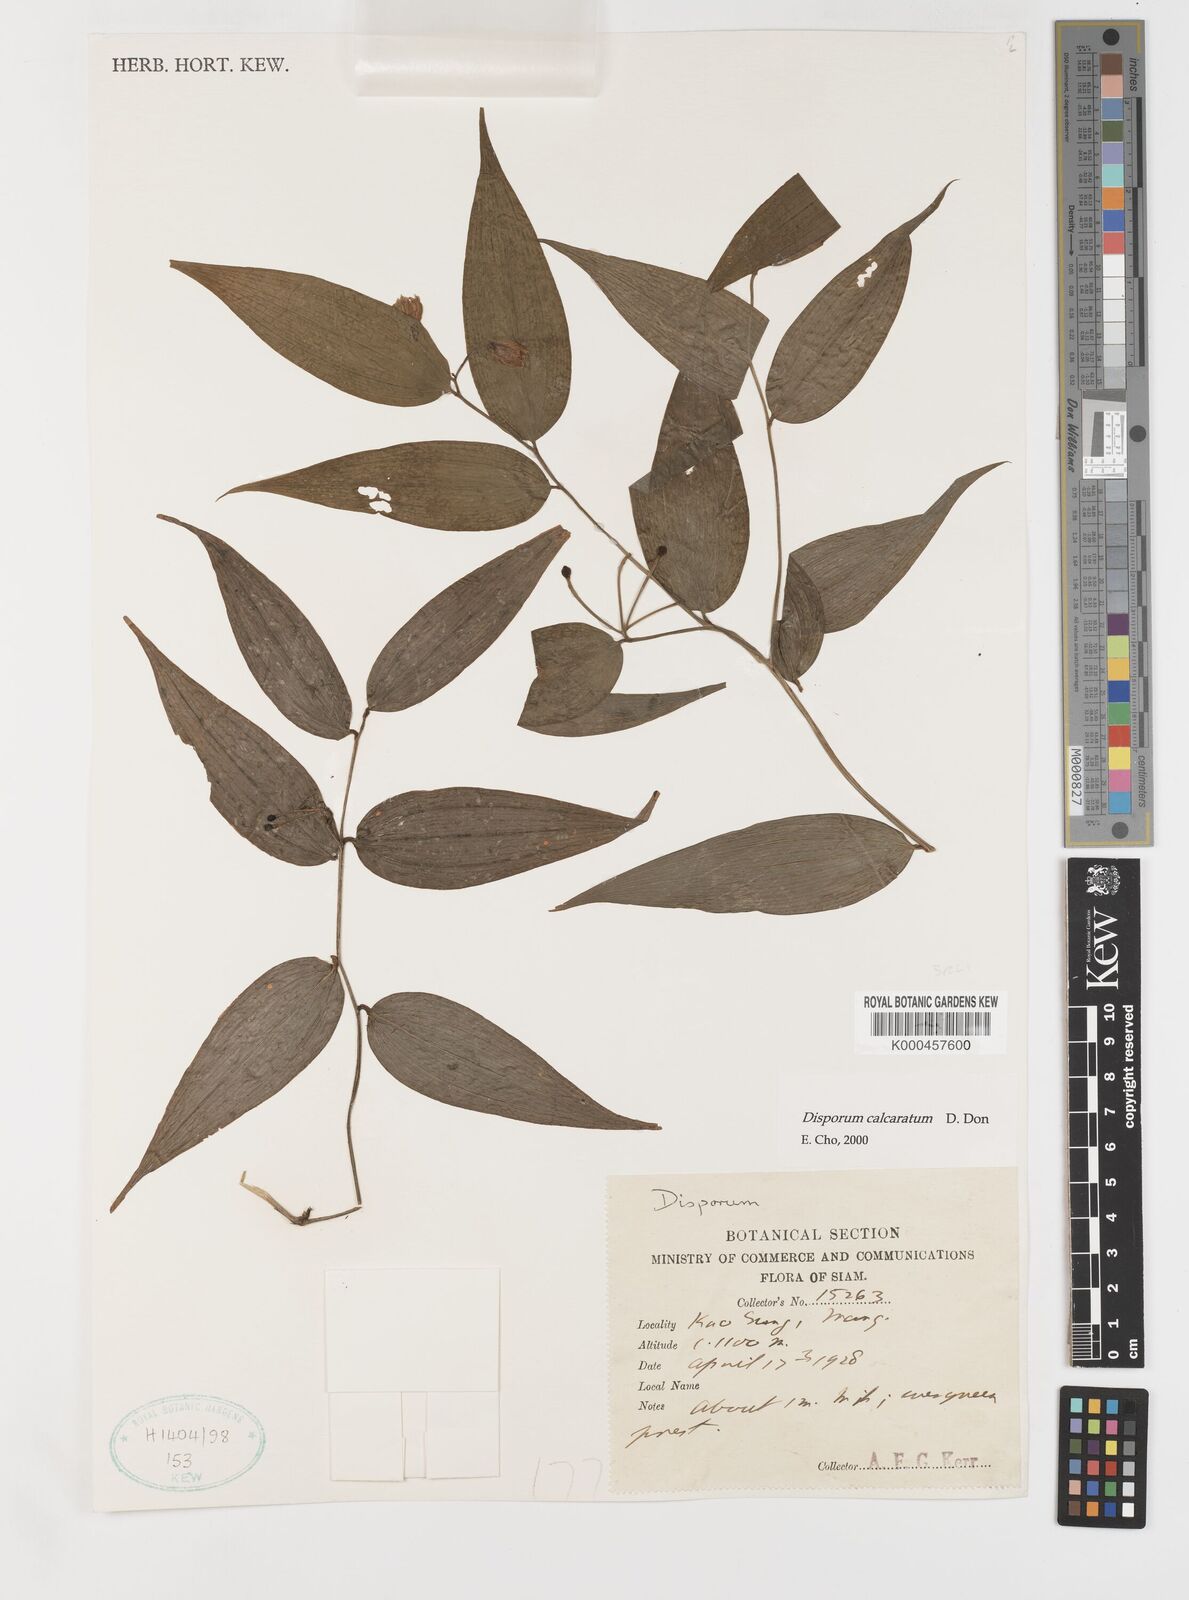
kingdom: Plantae
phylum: Tracheophyta
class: Liliopsida
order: Liliales
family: Colchicaceae
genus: Disporum
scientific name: Disporum calcaratum
